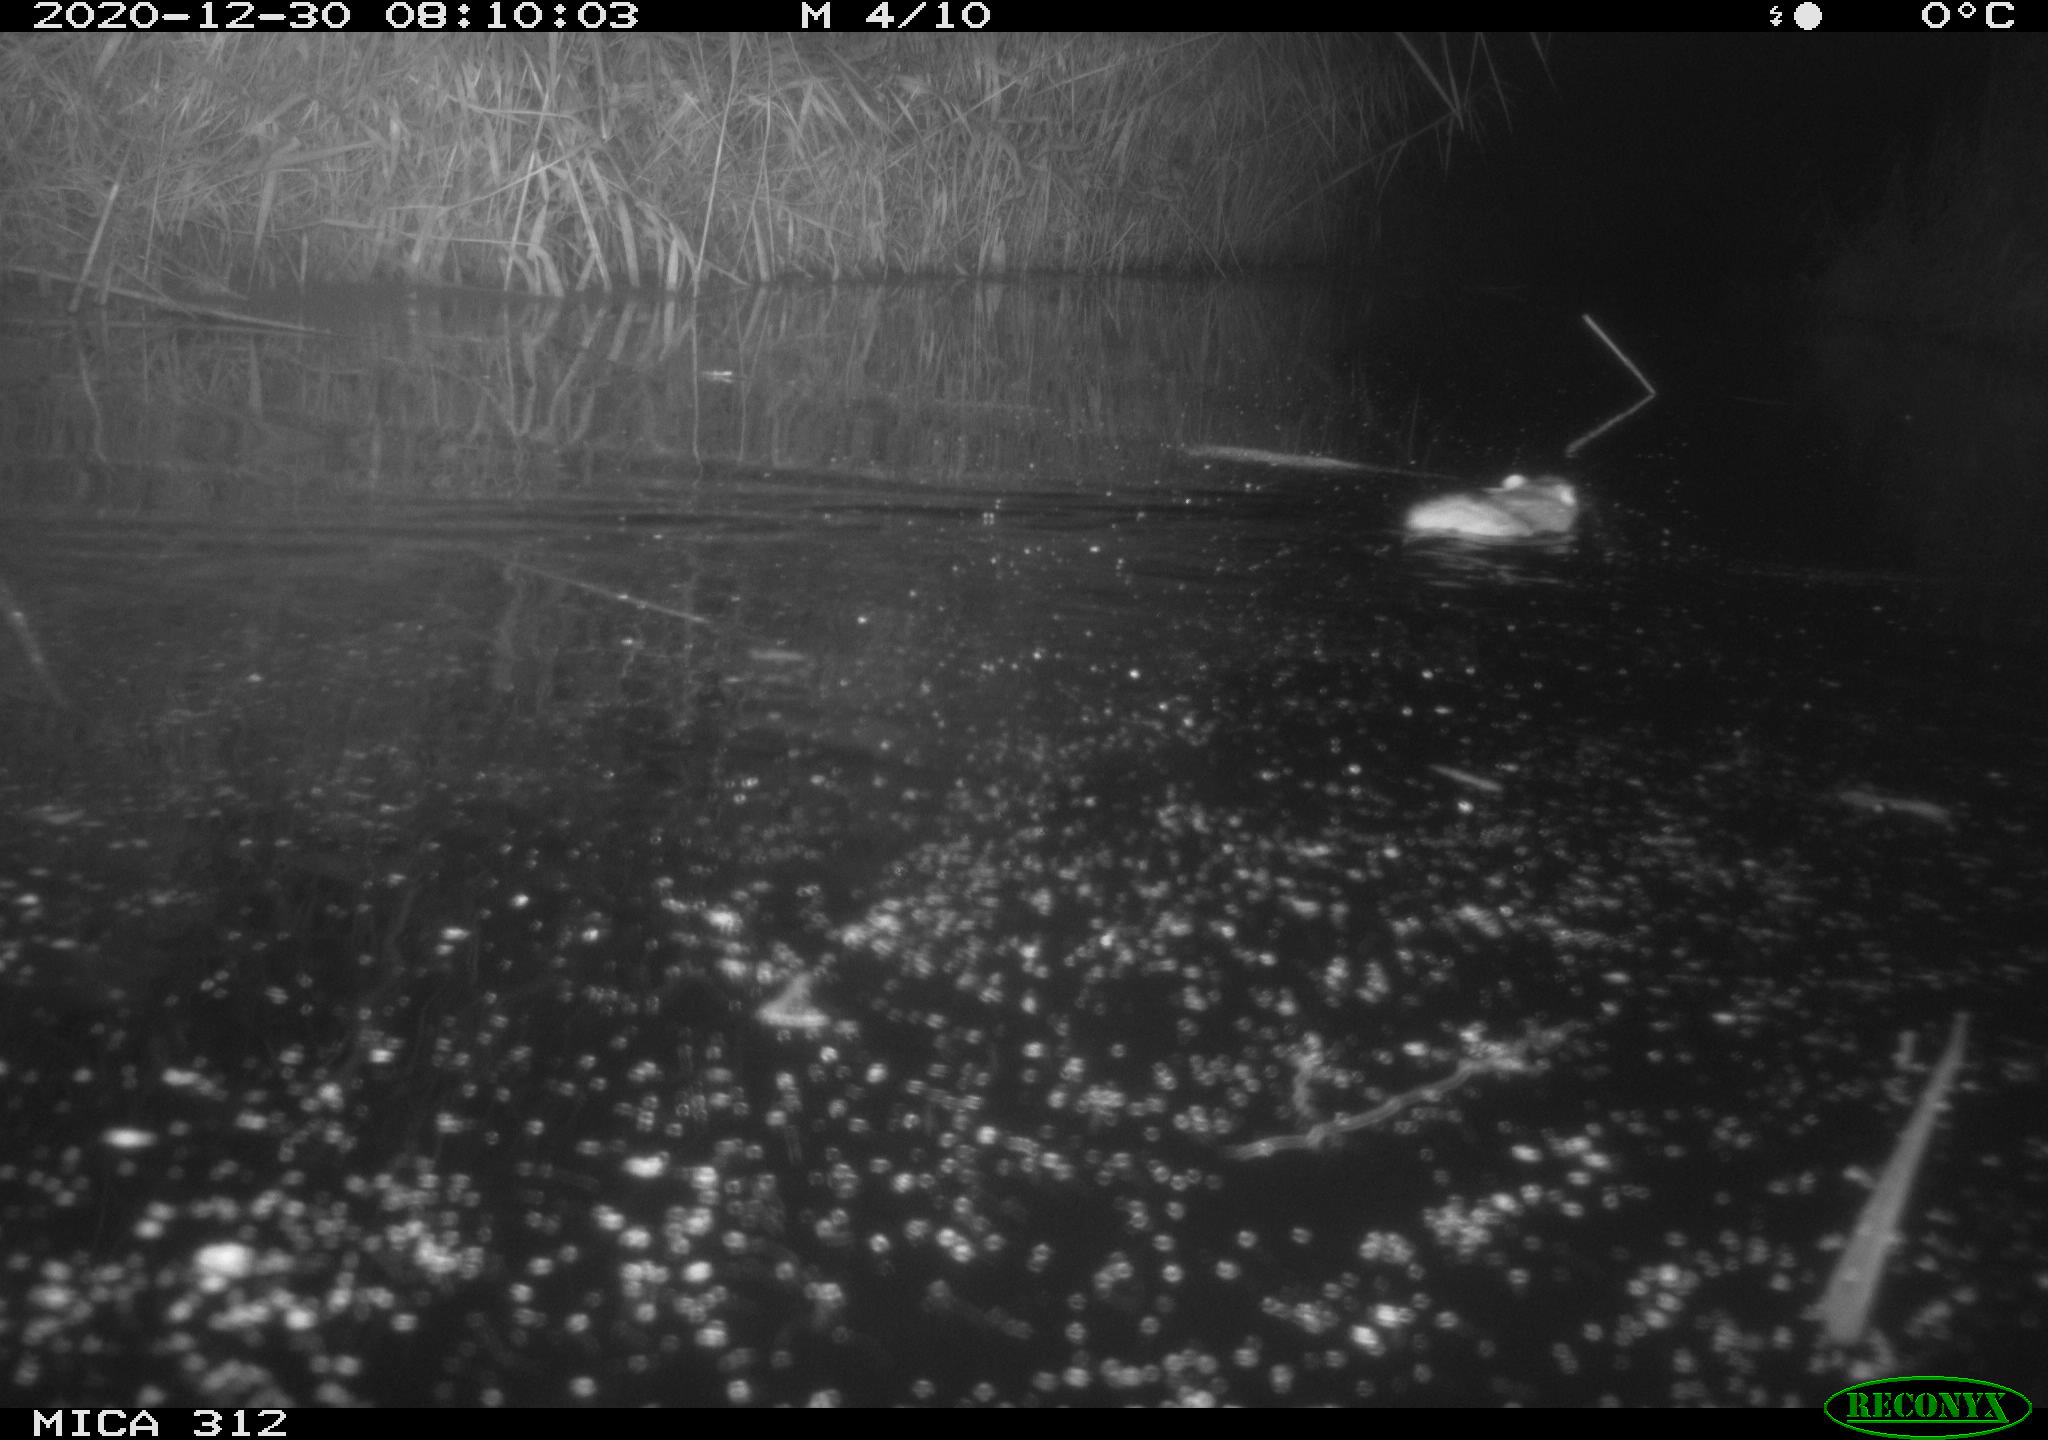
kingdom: Animalia
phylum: Chordata
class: Mammalia
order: Rodentia
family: Muridae
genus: Rattus
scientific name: Rattus norvegicus
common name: Brown rat
